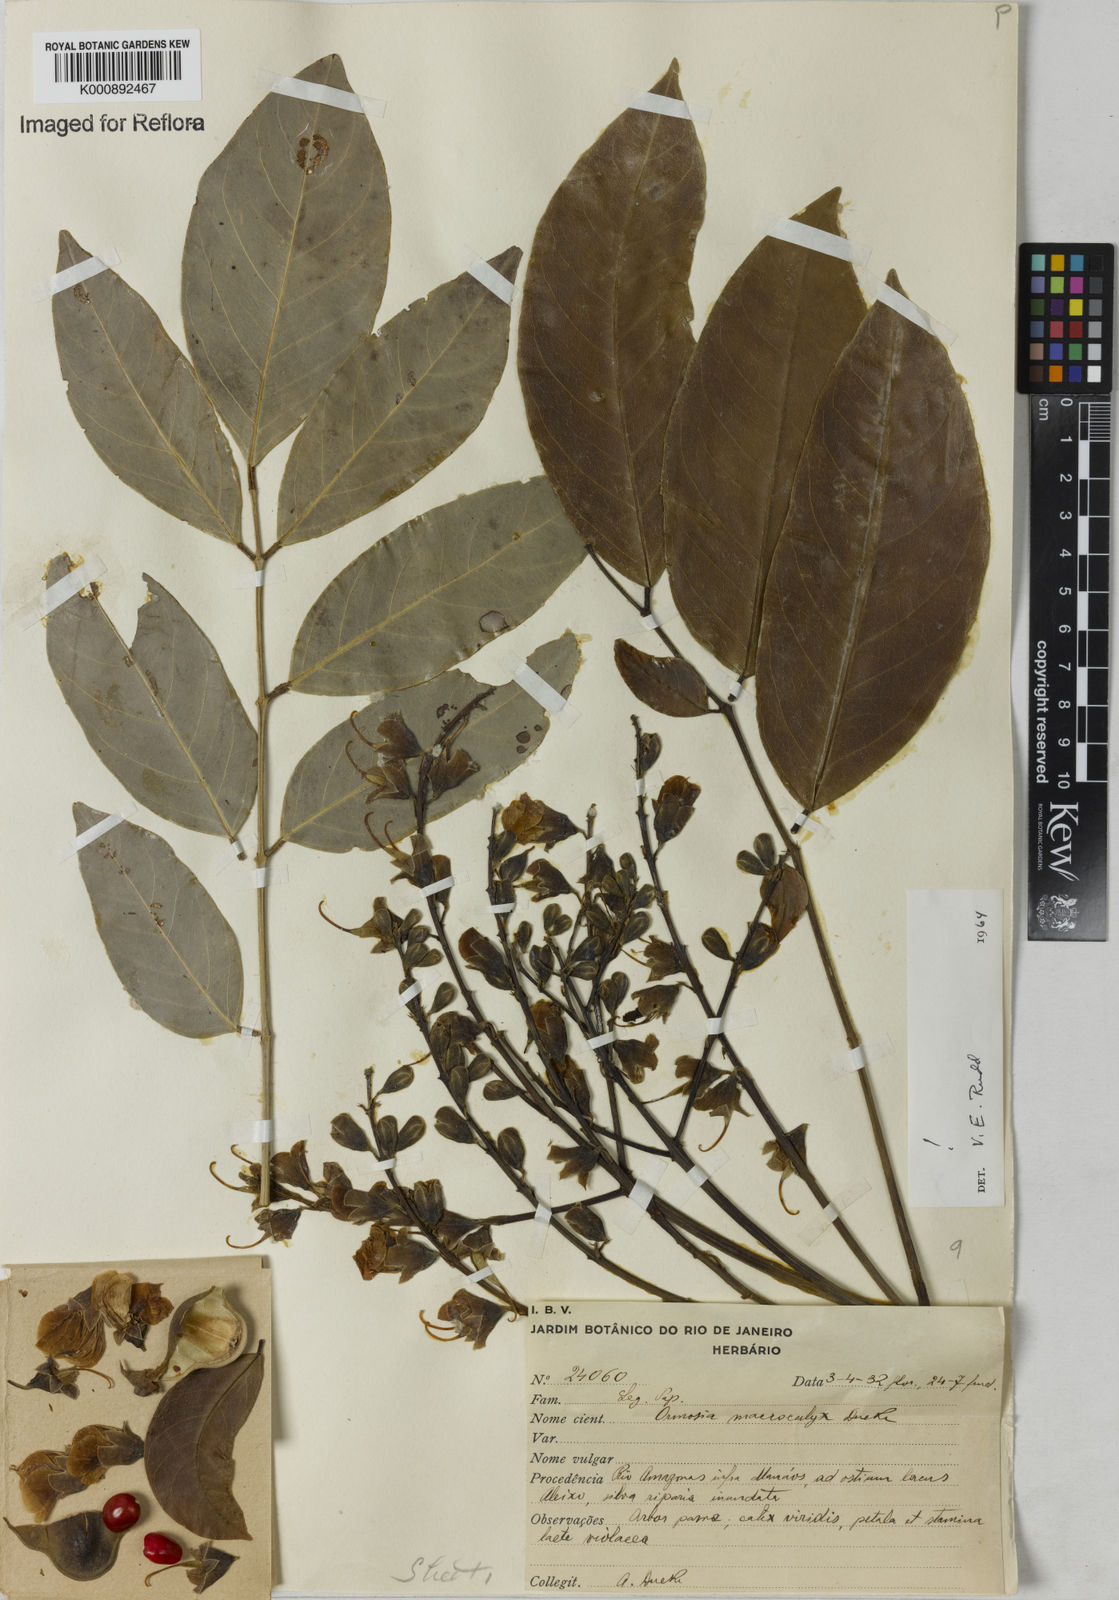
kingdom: Plantae
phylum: Tracheophyta
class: Magnoliopsida
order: Fabales
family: Fabaceae
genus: Ormosia
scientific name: Ormosia macrocalyx
